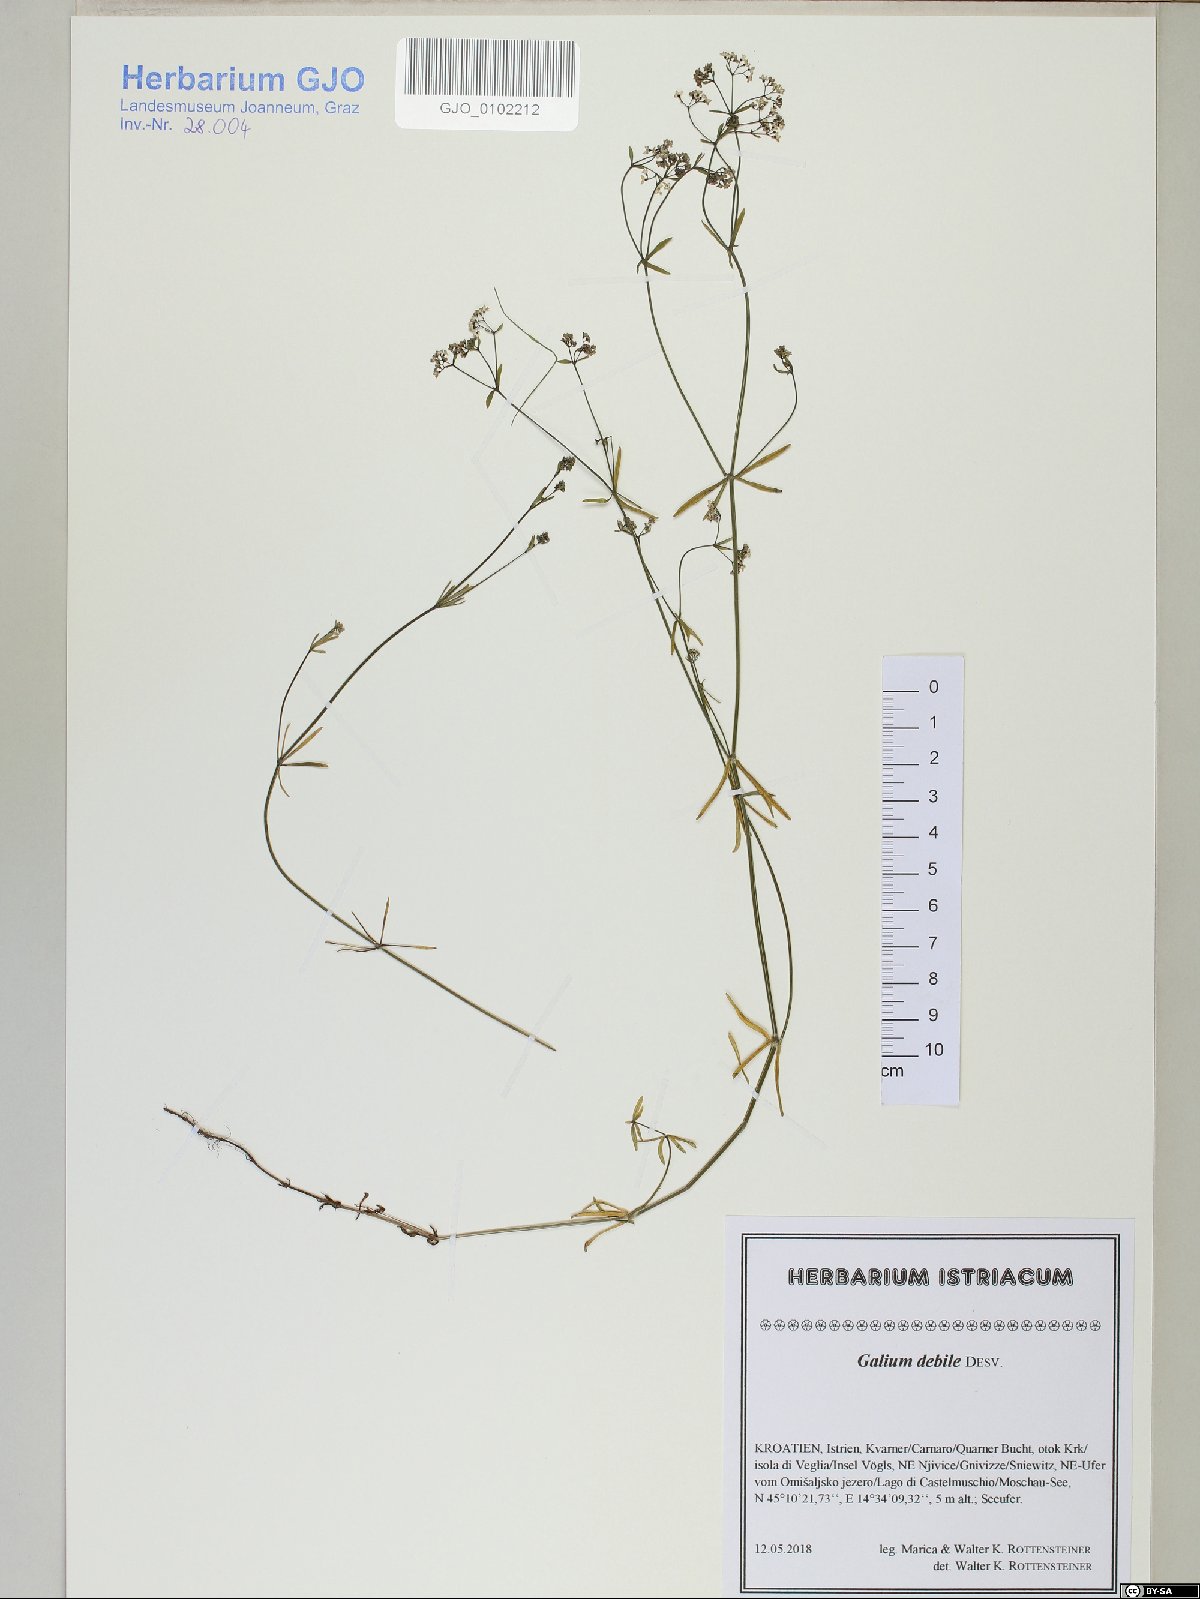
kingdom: Plantae
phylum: Tracheophyta
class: Magnoliopsida
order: Gentianales
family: Rubiaceae
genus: Galium
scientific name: Galium debile
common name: Slender marsh-bedstraw
